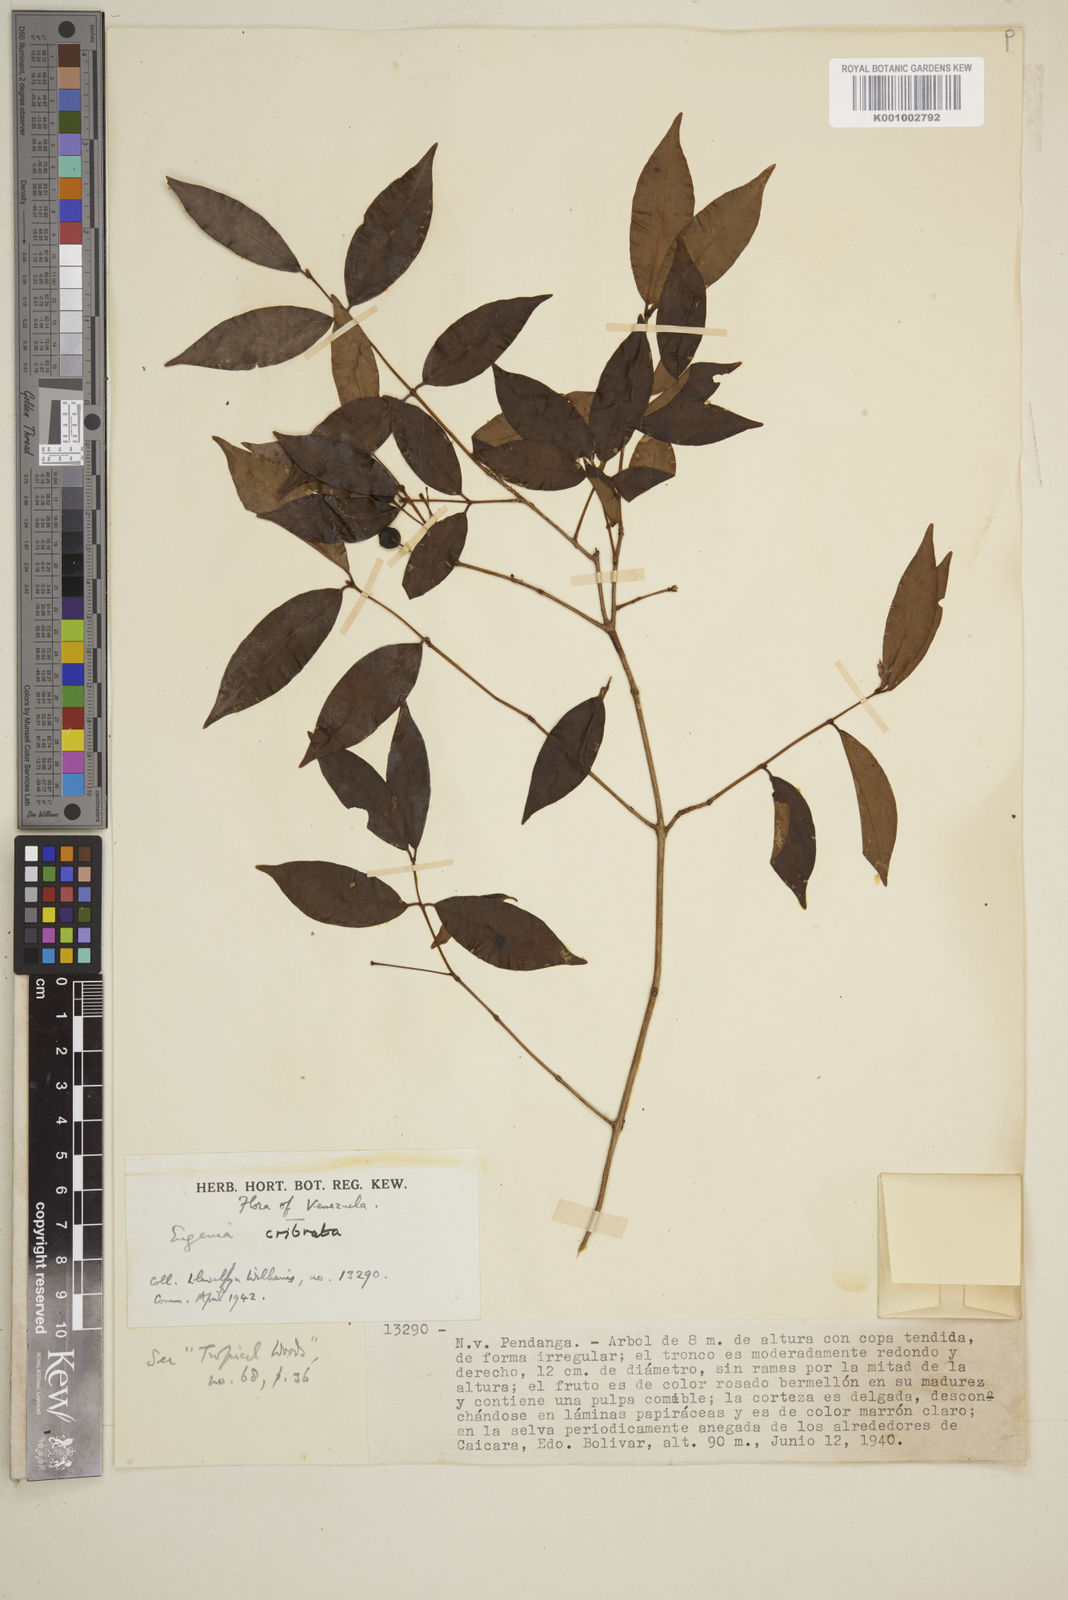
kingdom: Plantae
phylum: Tracheophyta
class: Magnoliopsida
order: Myrtales
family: Myrtaceae
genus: Eugenia
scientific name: Eugenia cribrata
